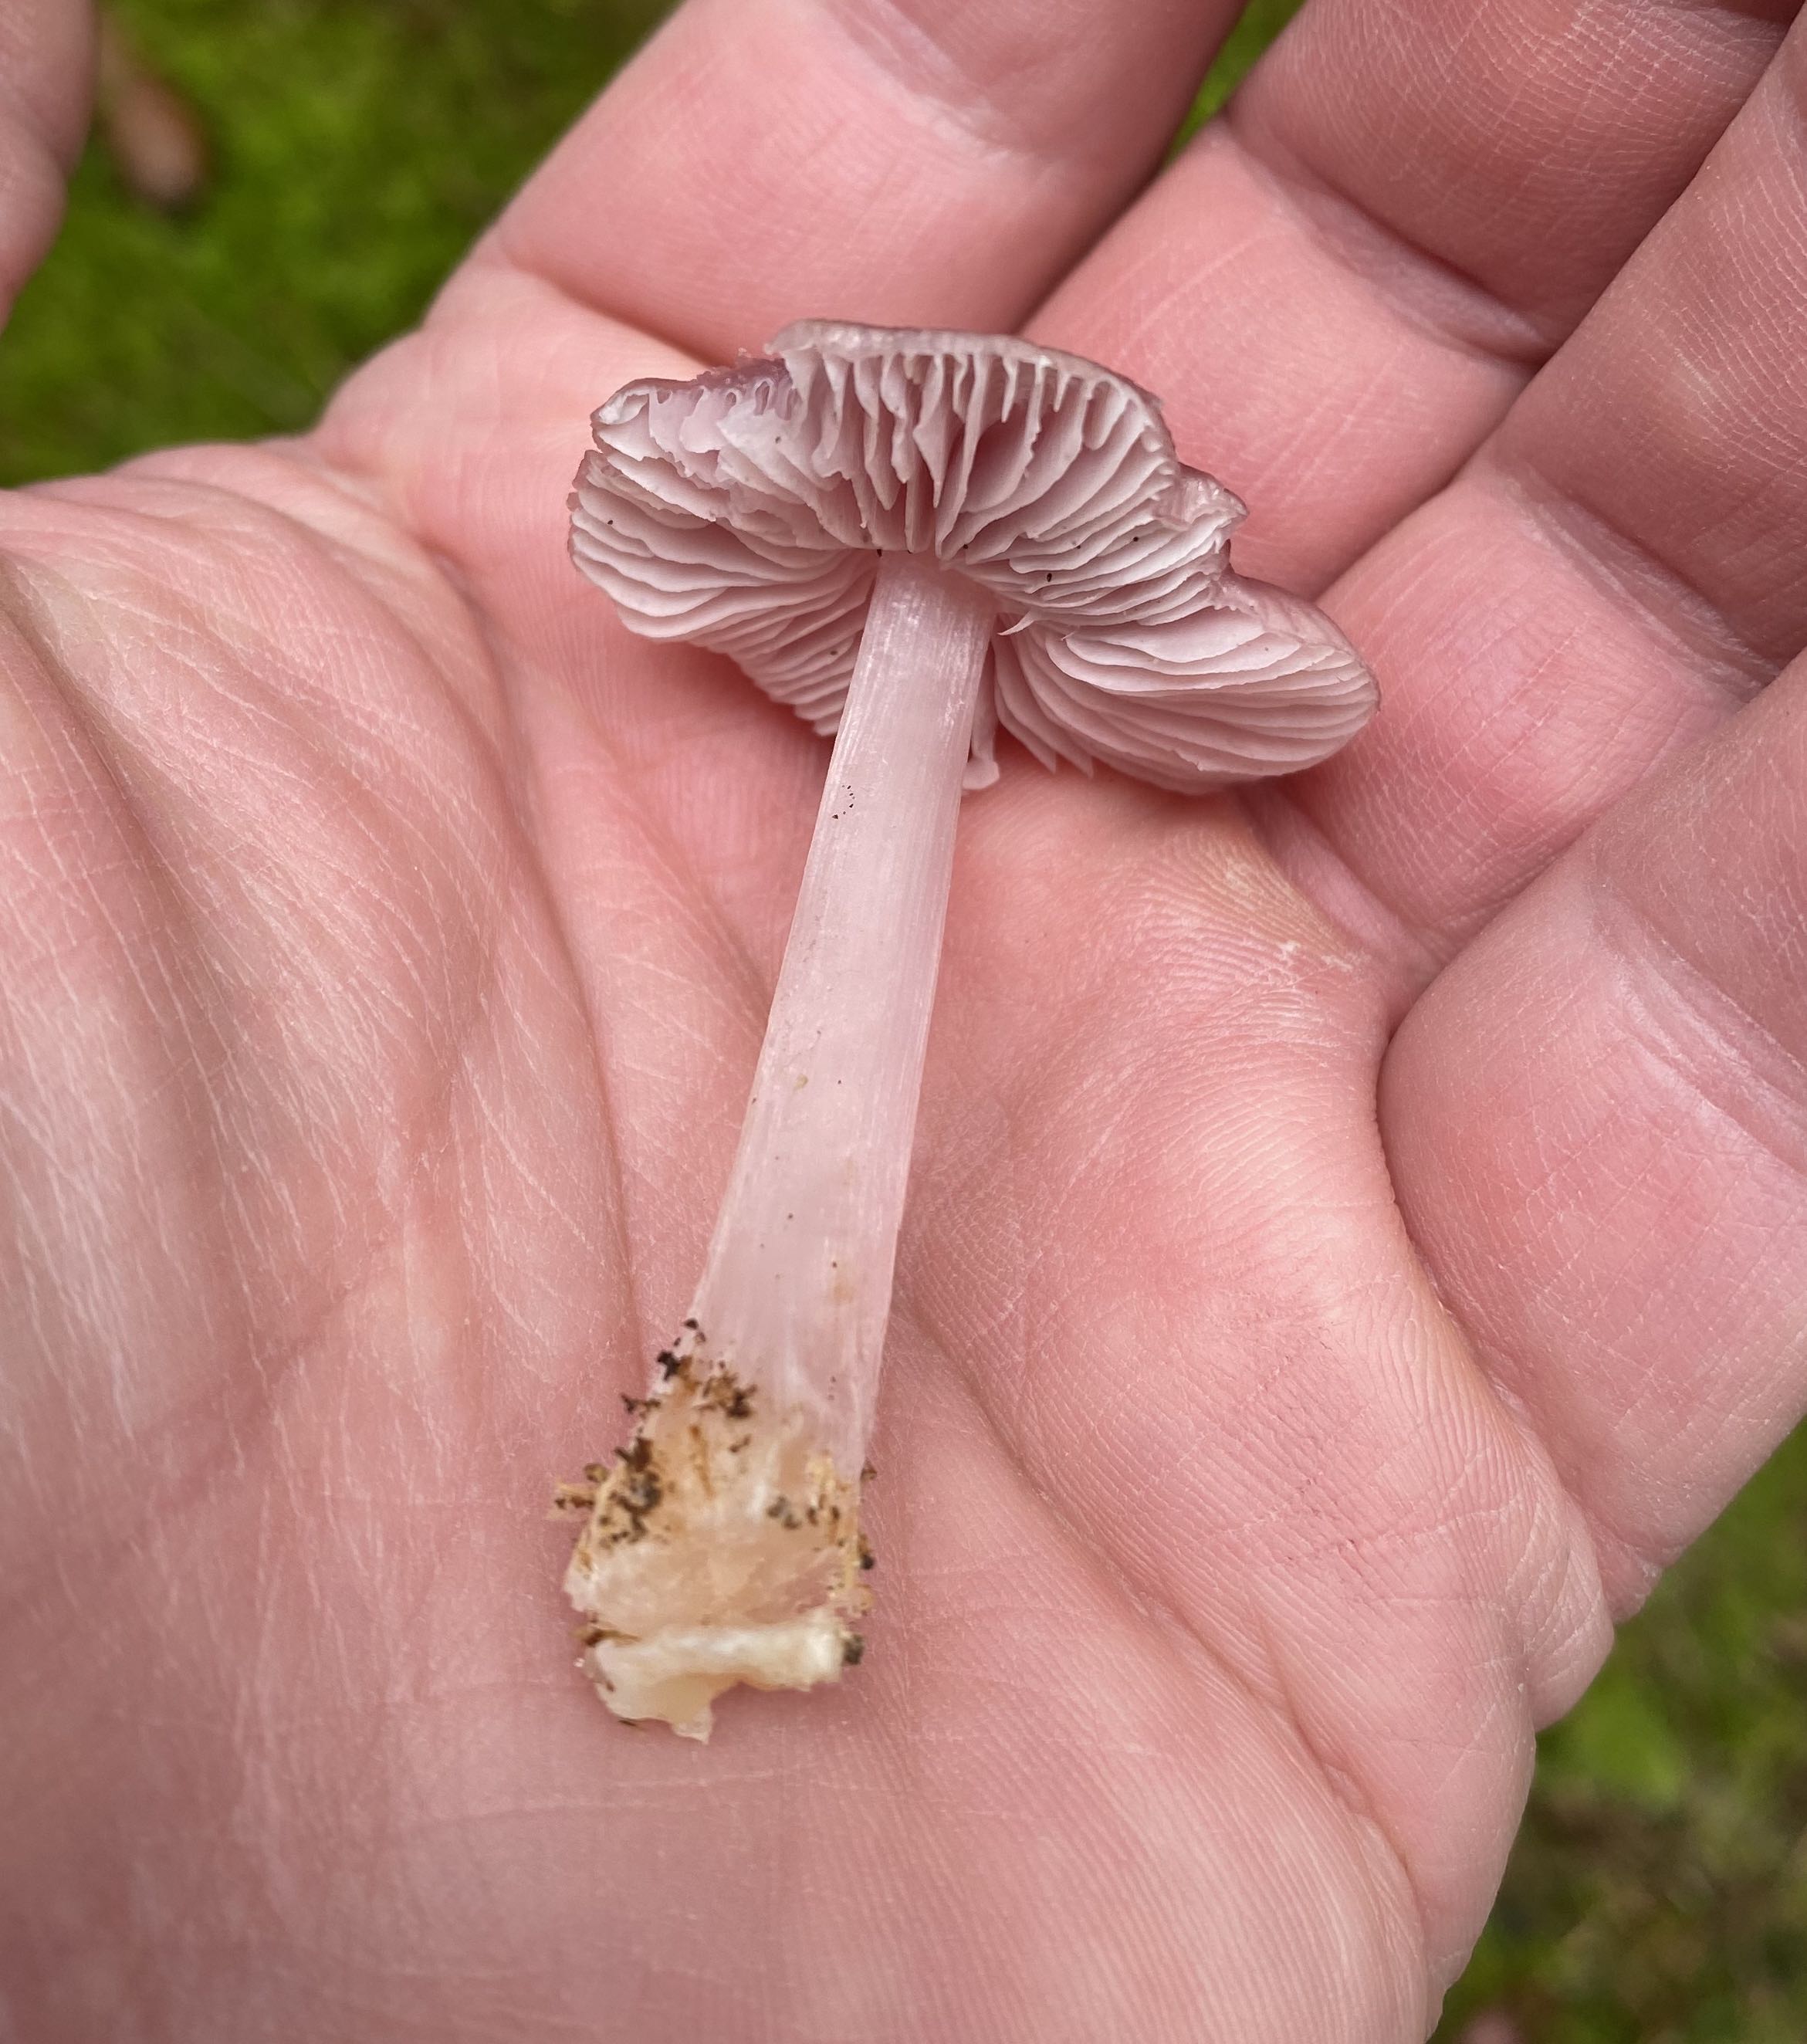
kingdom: Fungi
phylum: Basidiomycota
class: Agaricomycetes
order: Agaricales
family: Mycenaceae
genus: Mycena
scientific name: Mycena rosea
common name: rosa huesvamp
